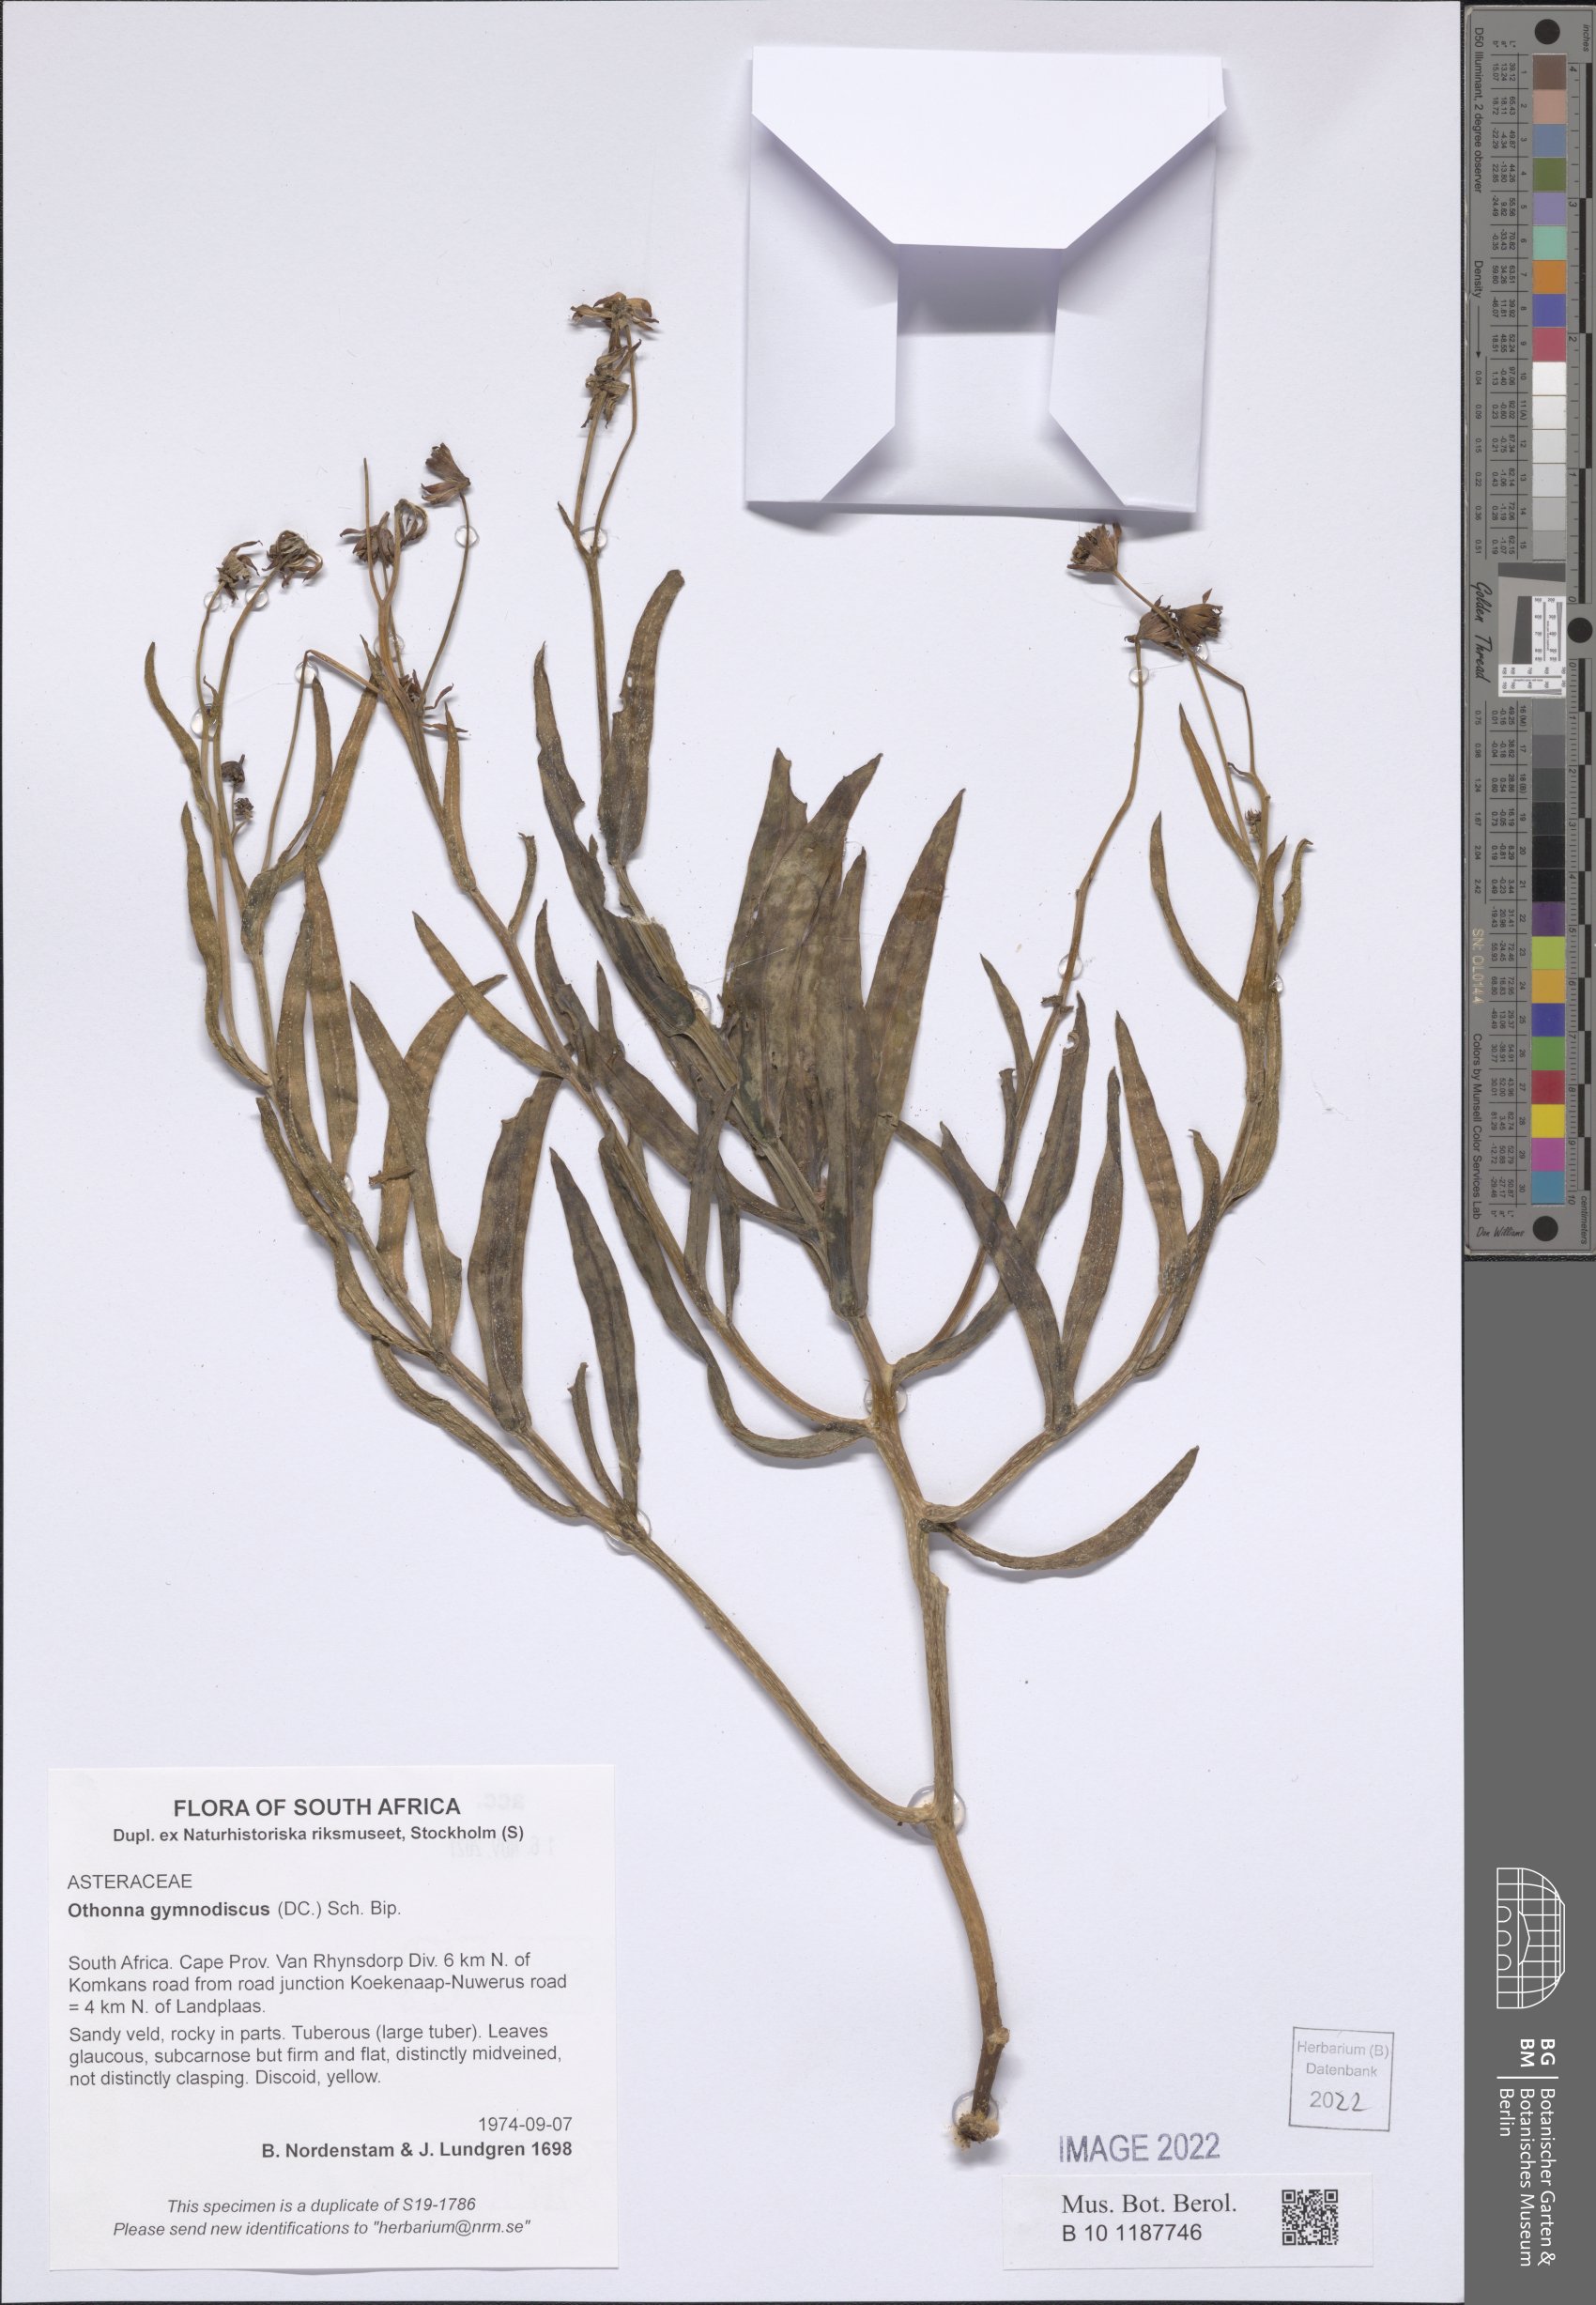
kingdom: Plantae
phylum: Tracheophyta
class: Magnoliopsida
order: Asterales
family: Asteraceae
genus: Othonna
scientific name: Othonna gymnodiscus
